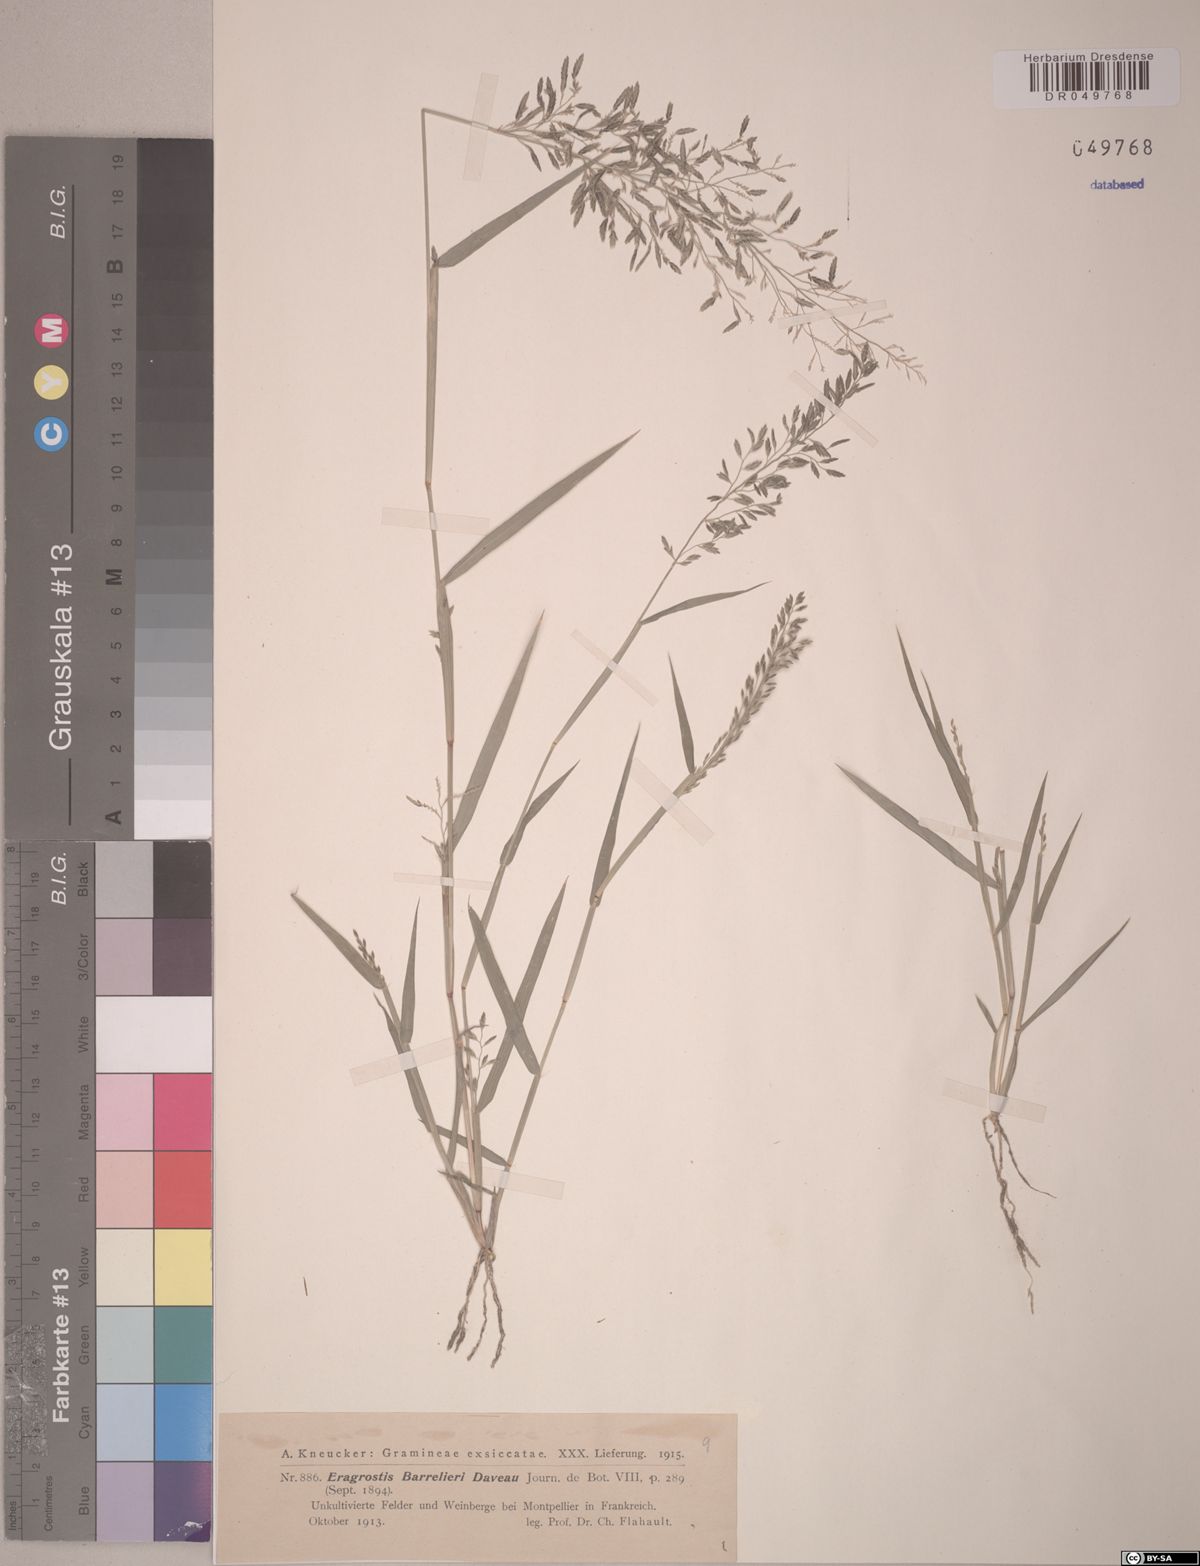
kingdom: Plantae
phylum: Tracheophyta
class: Liliopsida
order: Poales
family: Poaceae
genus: Eragrostis
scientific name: Eragrostis barrelieri
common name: Mediterranean lovegrass
